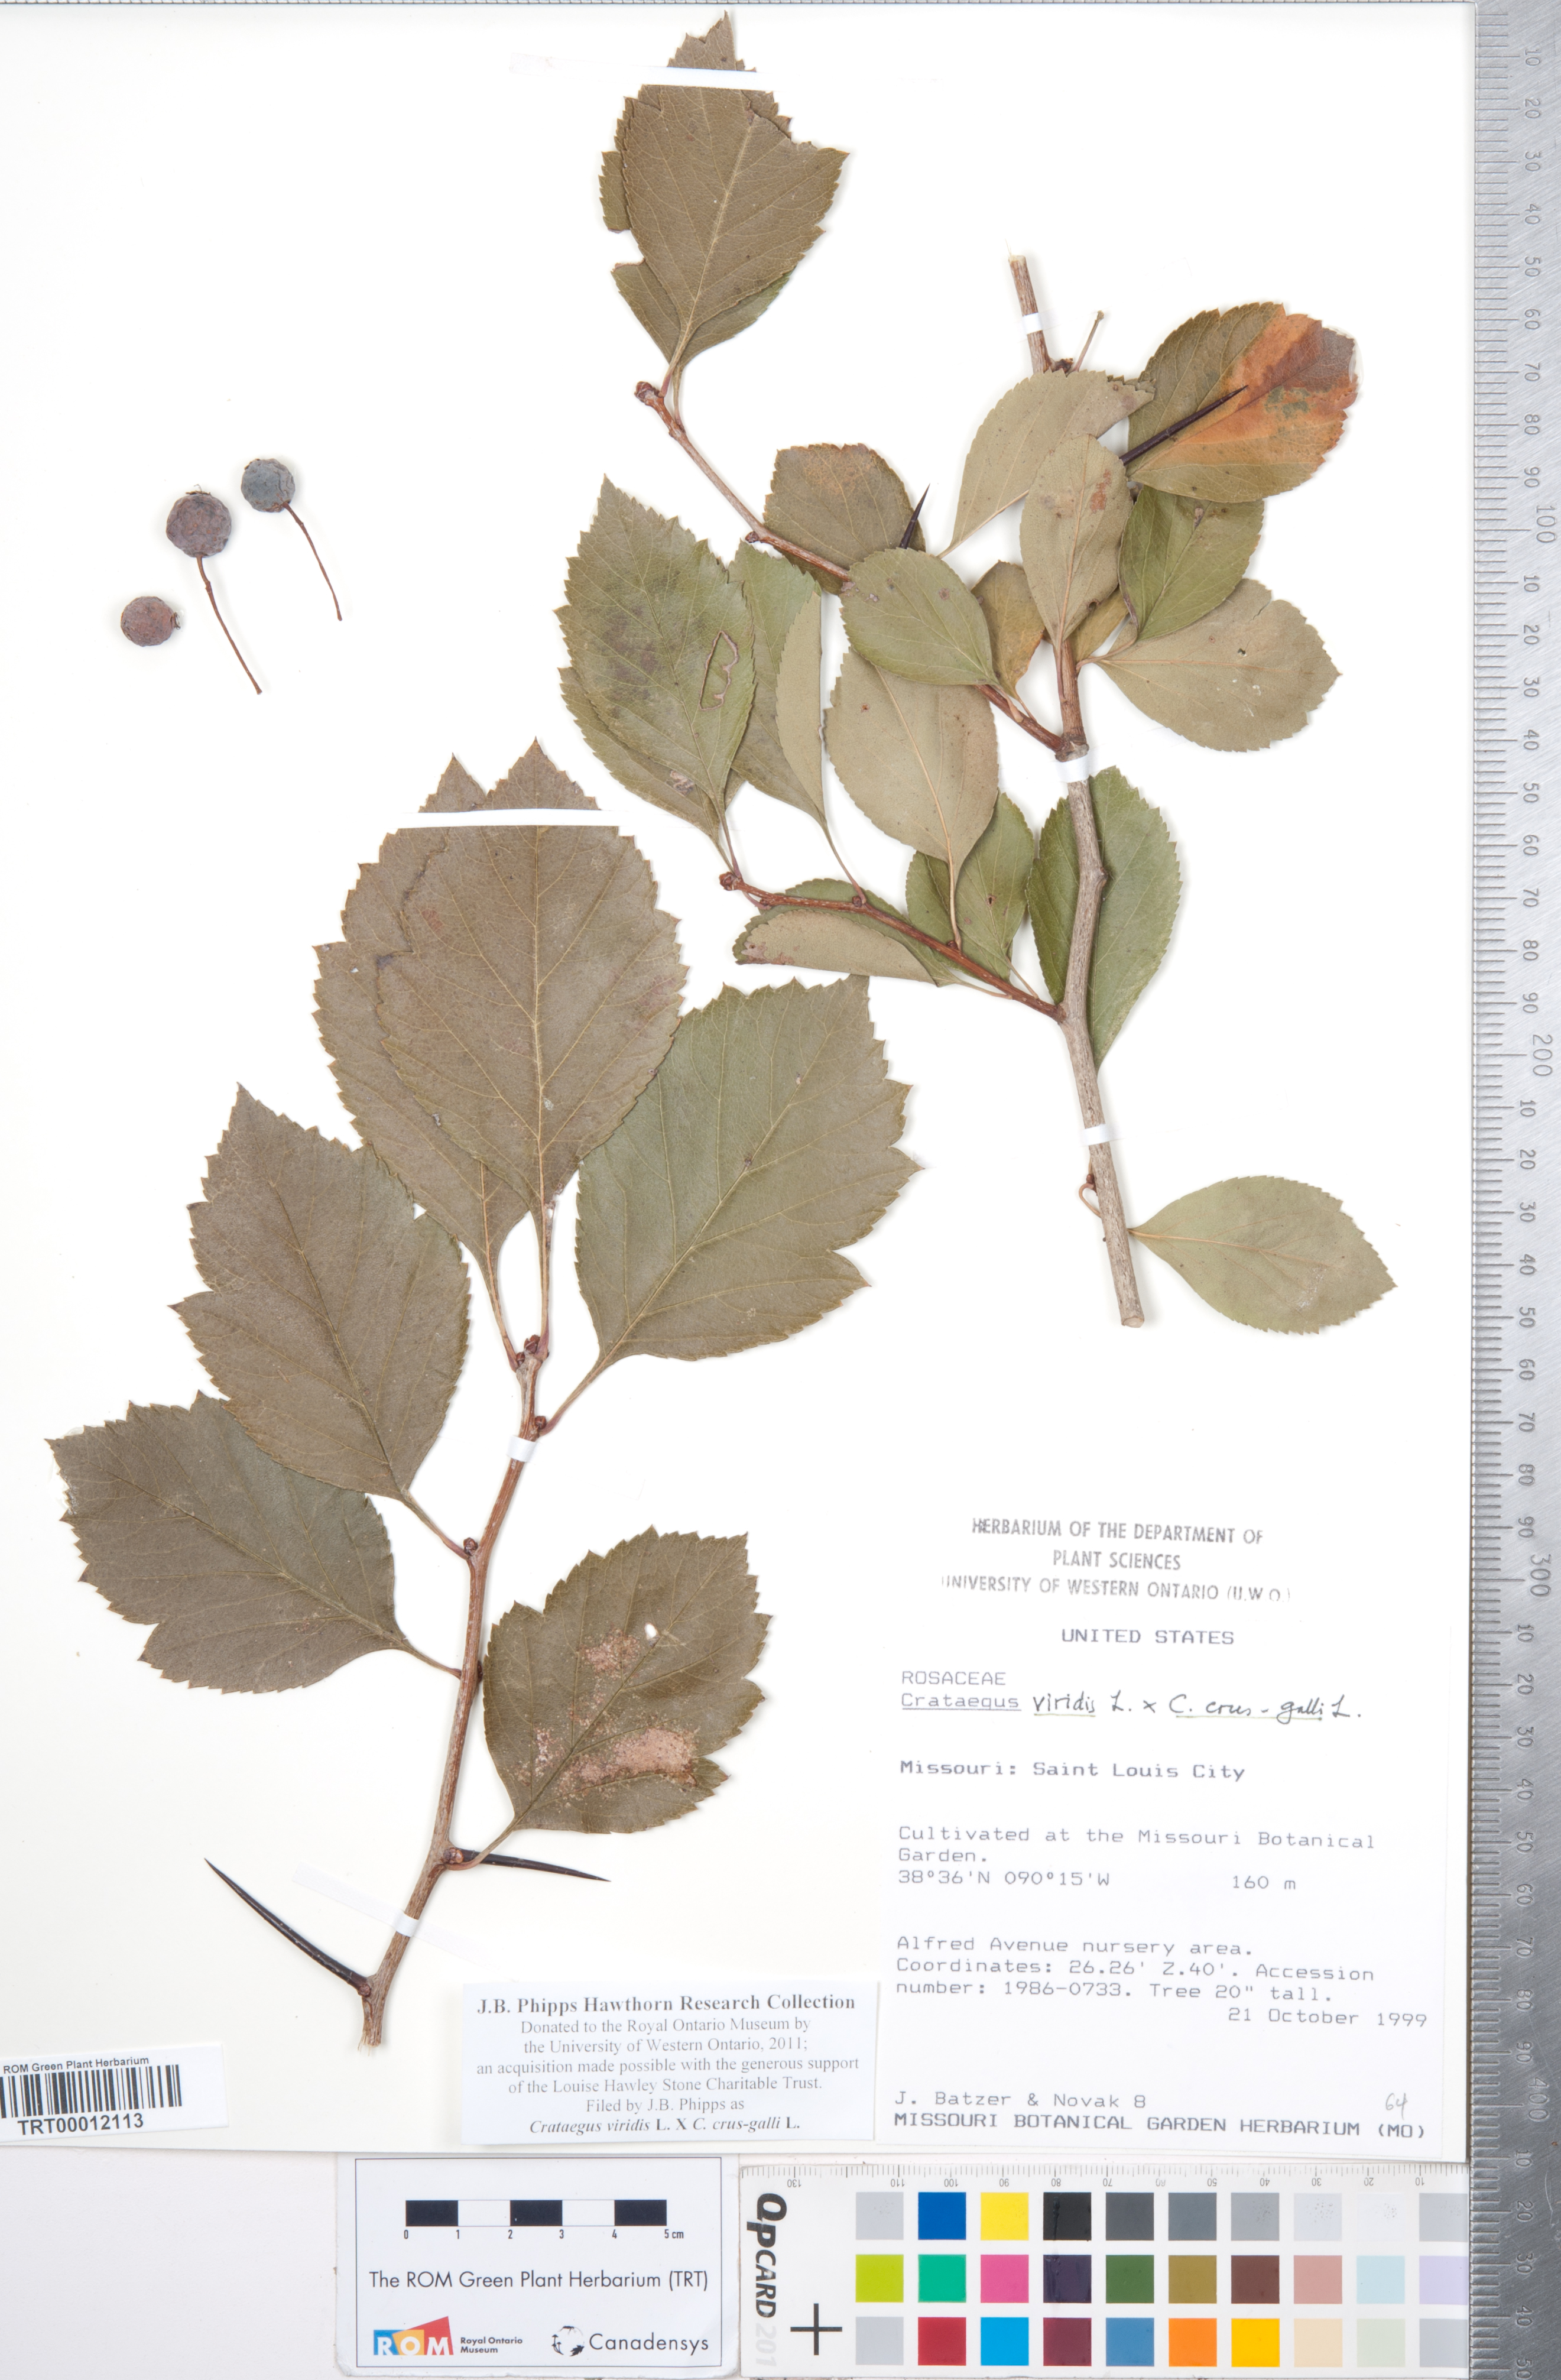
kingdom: Plantae
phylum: Tracheophyta
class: Magnoliopsida
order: Rosales
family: Rosaceae
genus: Crataegus
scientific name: Crataegus
